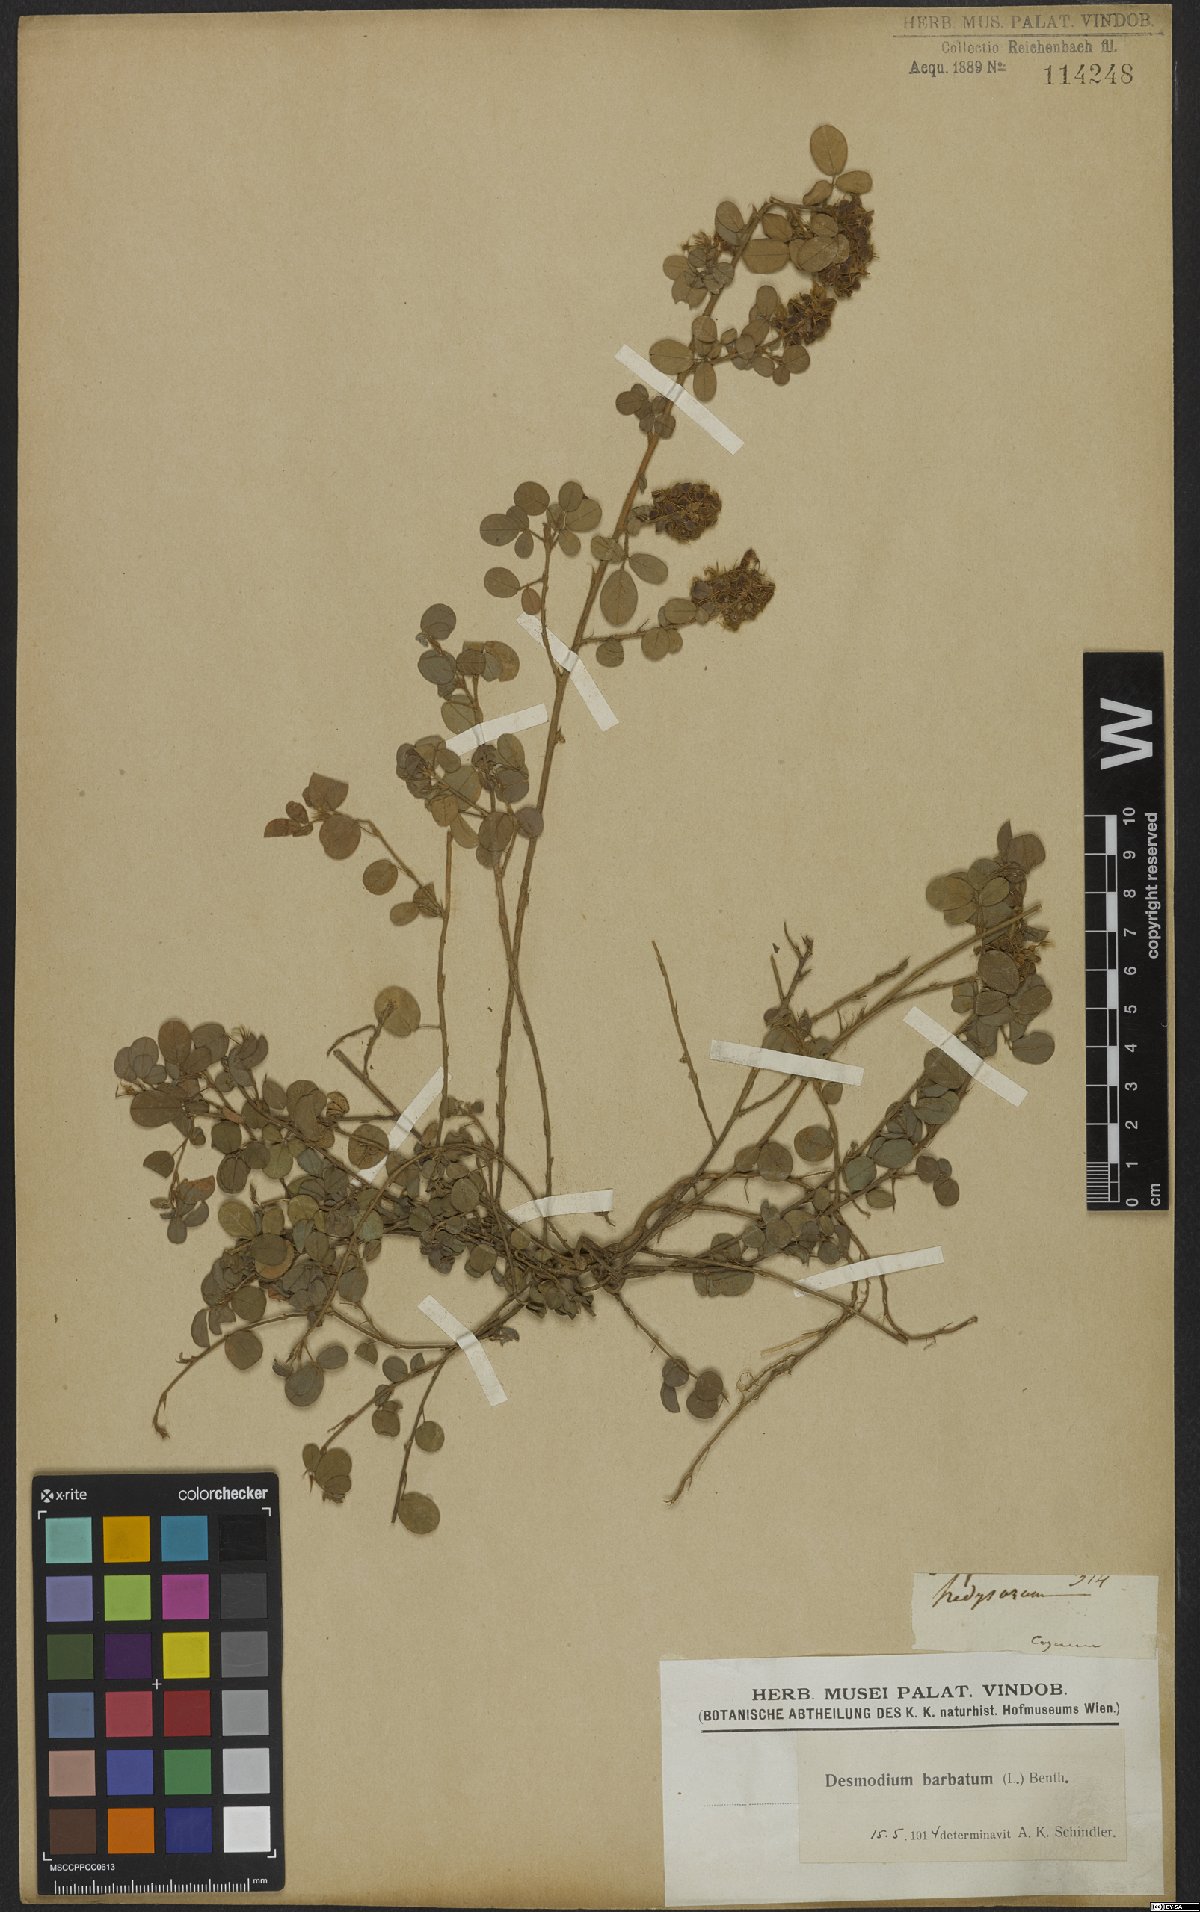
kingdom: Plantae
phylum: Tracheophyta
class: Magnoliopsida
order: Fabales
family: Fabaceae
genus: Grona
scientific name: Grona barbata
